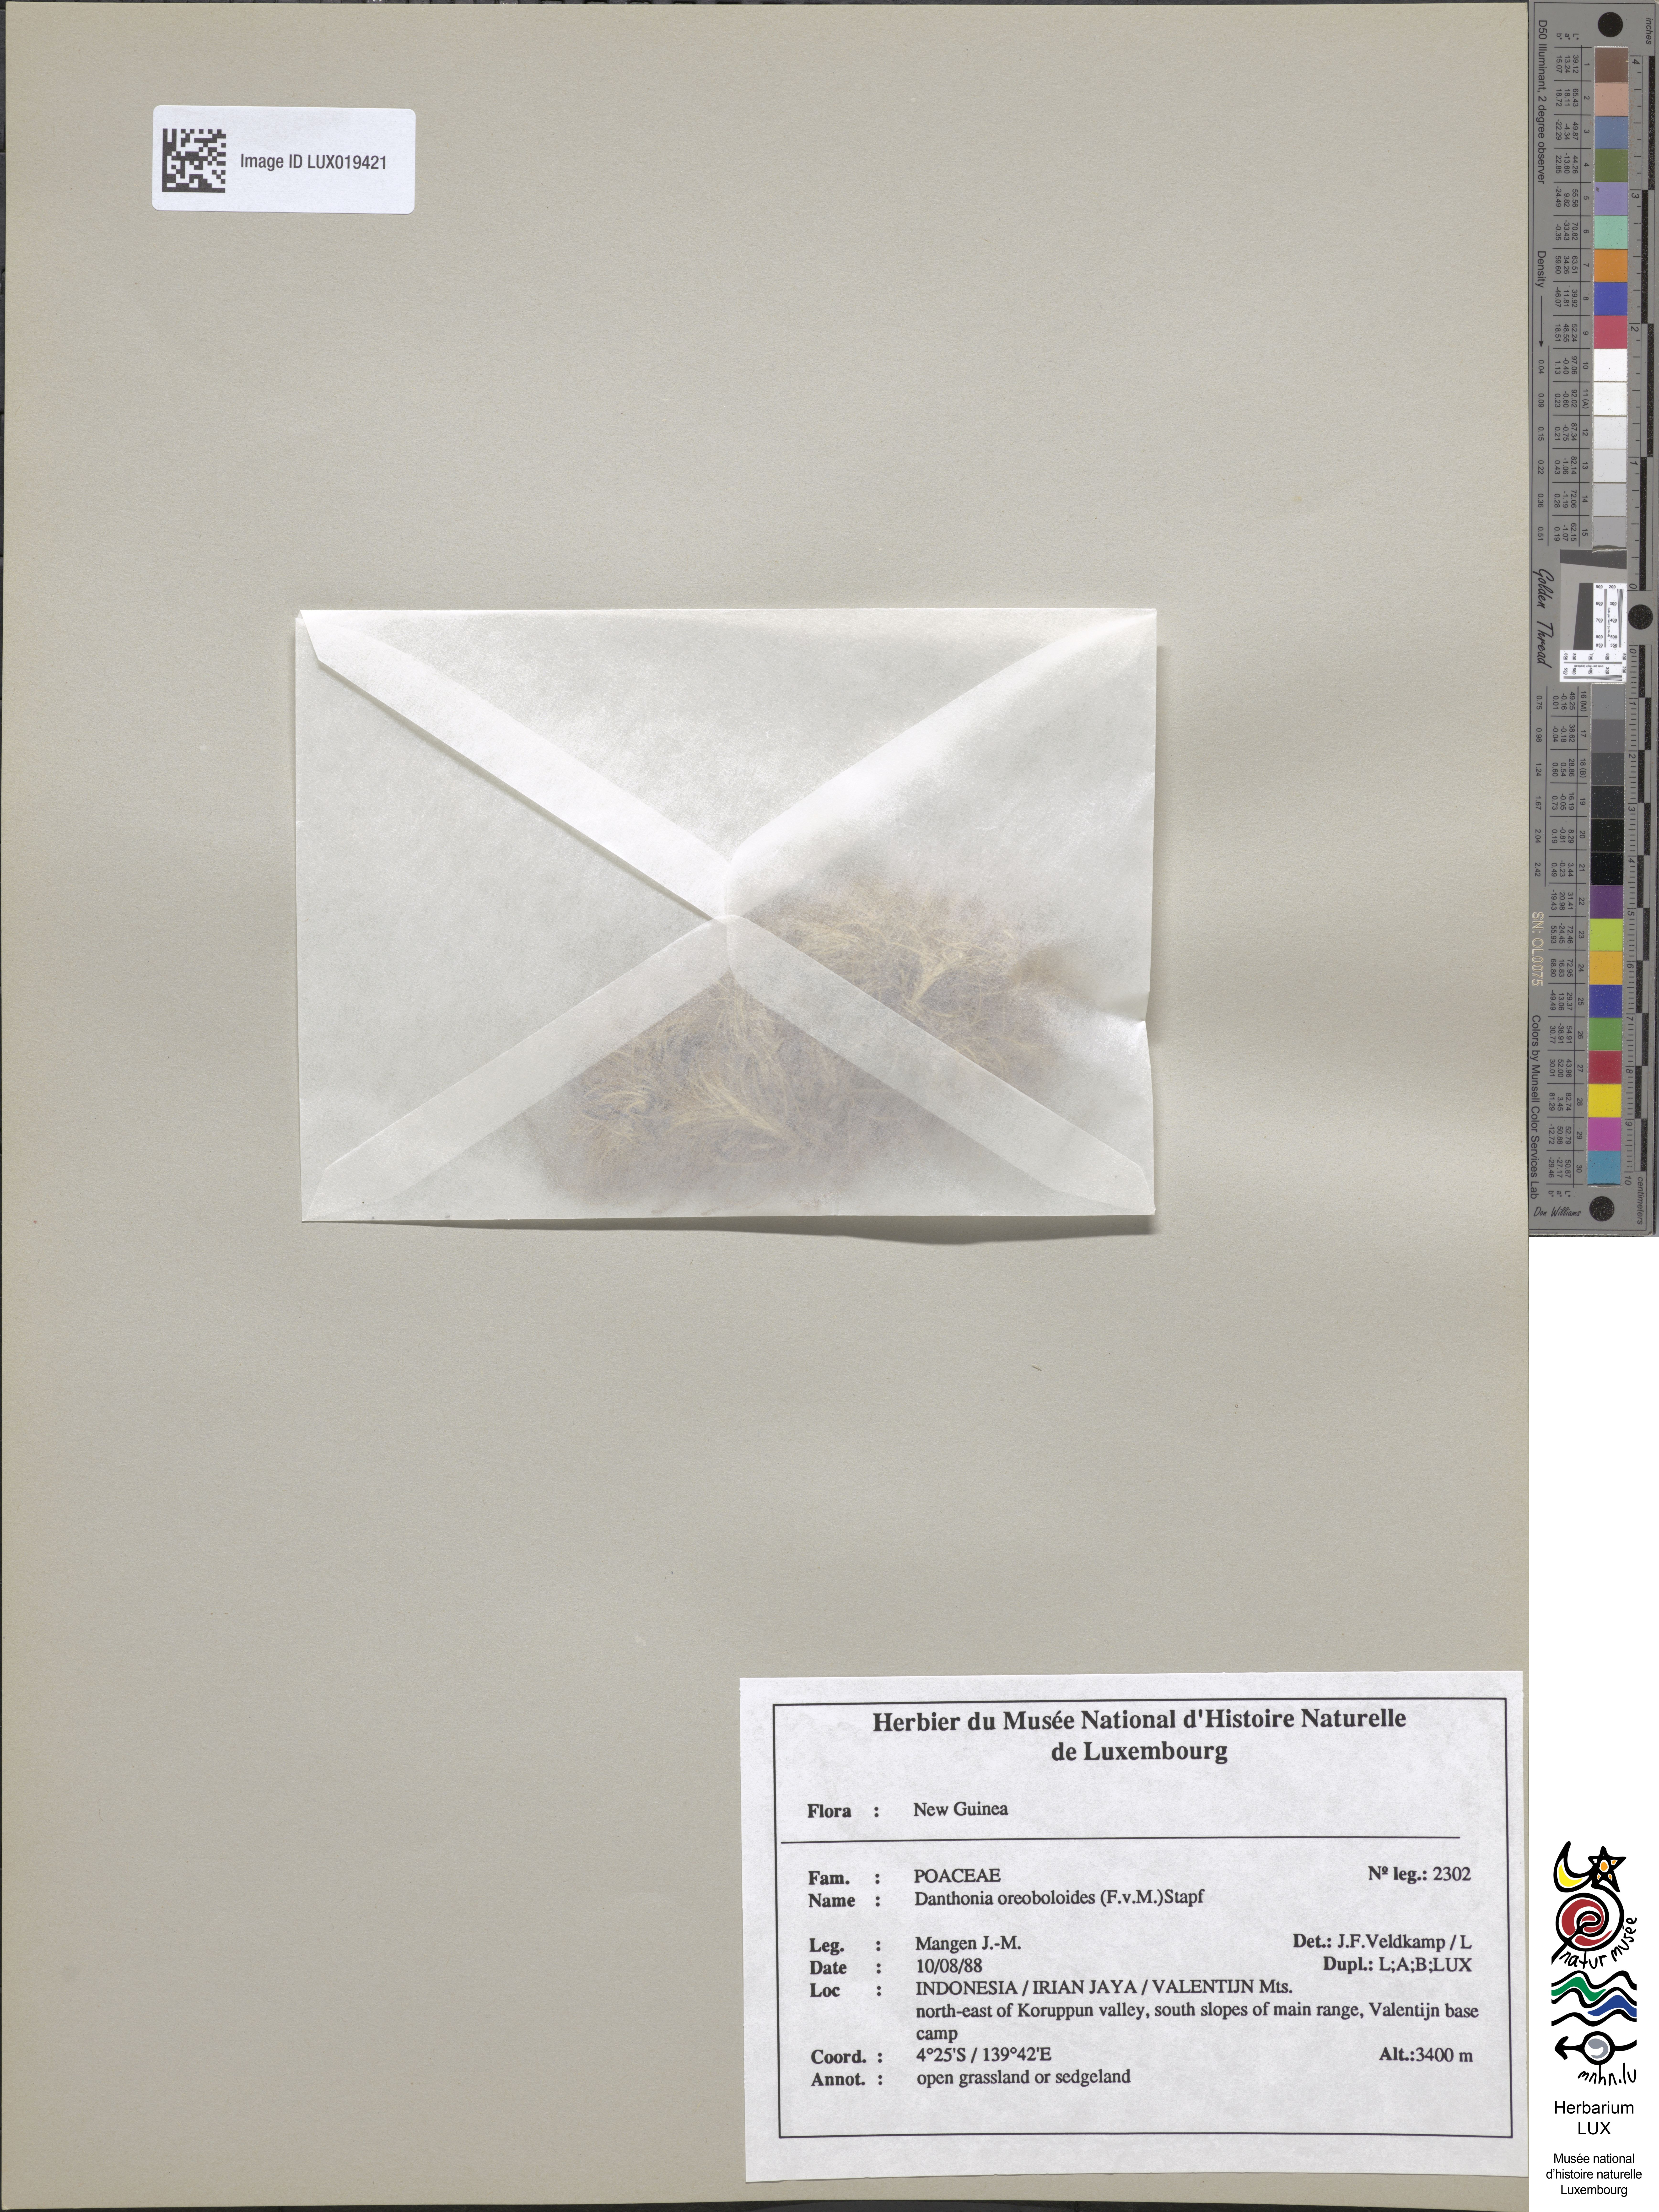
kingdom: Plantae
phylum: Tracheophyta
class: Liliopsida
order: Poales
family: Poaceae
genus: Rytidosperma
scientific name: Rytidosperma oreoboloides
